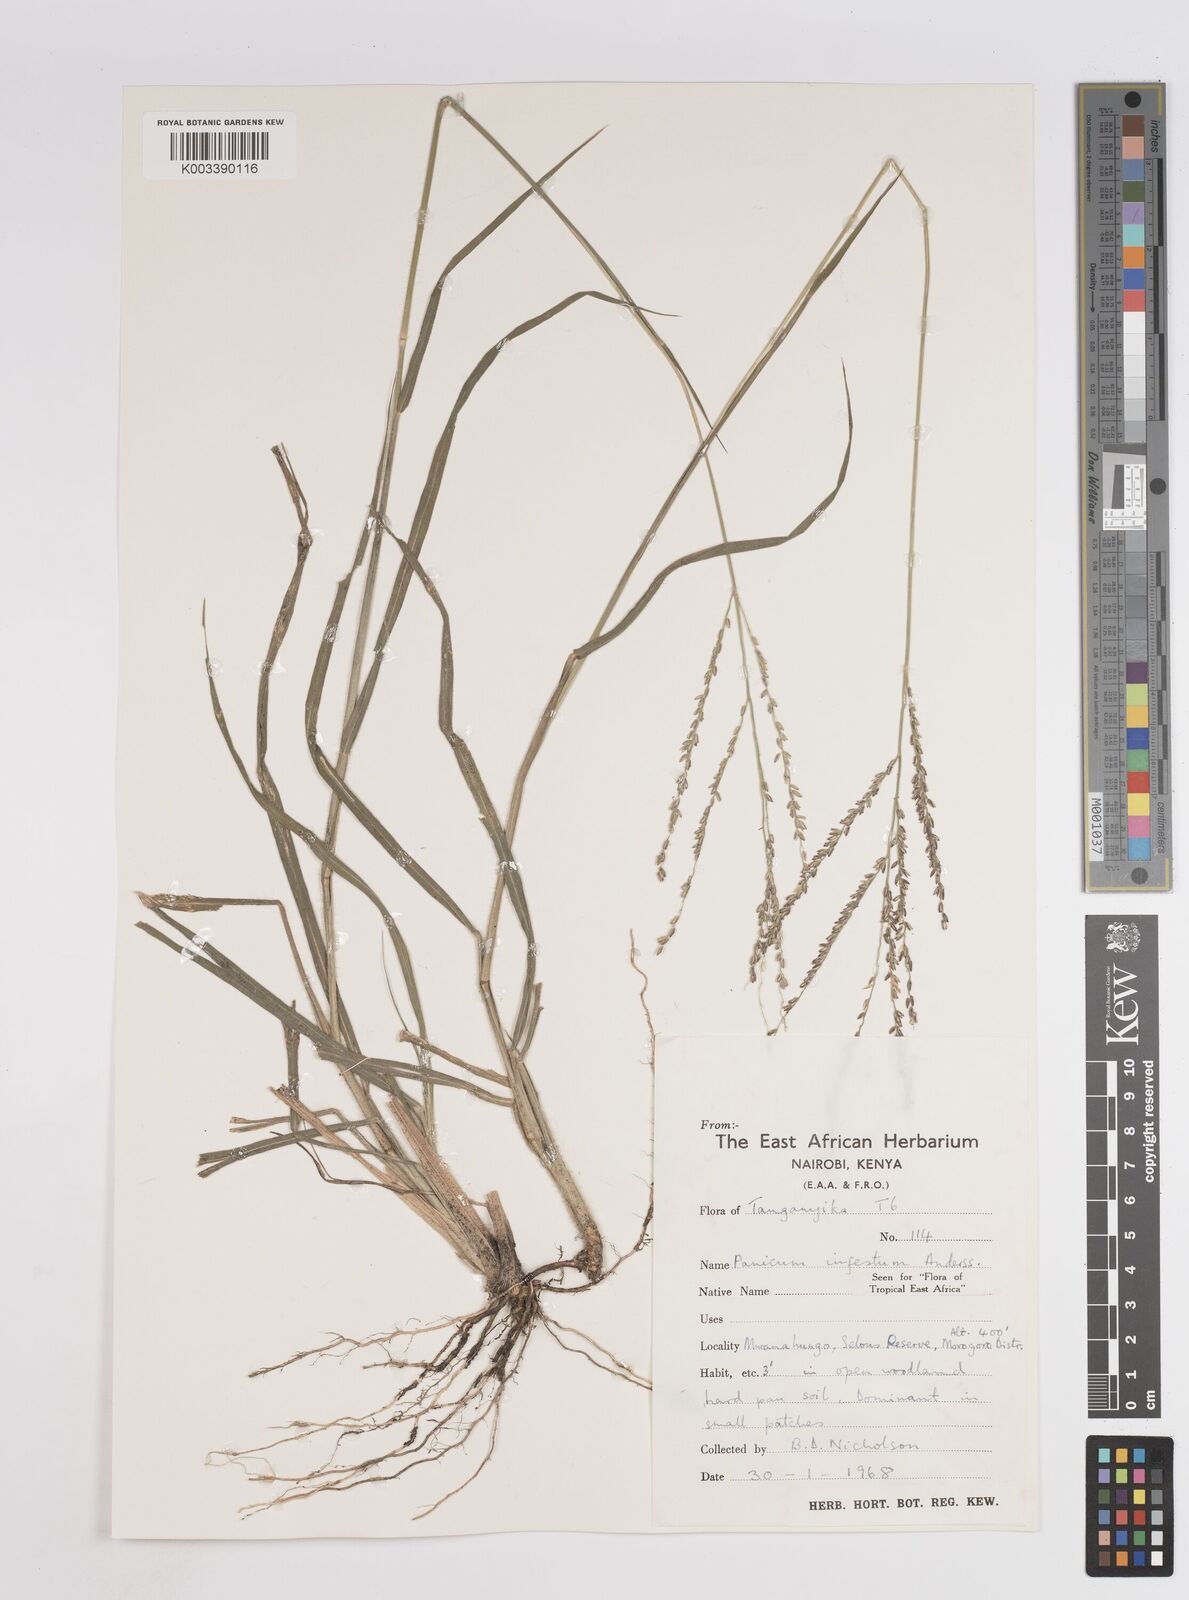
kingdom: Plantae
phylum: Tracheophyta
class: Liliopsida
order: Poales
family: Poaceae
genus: Megathyrsus
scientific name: Megathyrsus infestus
